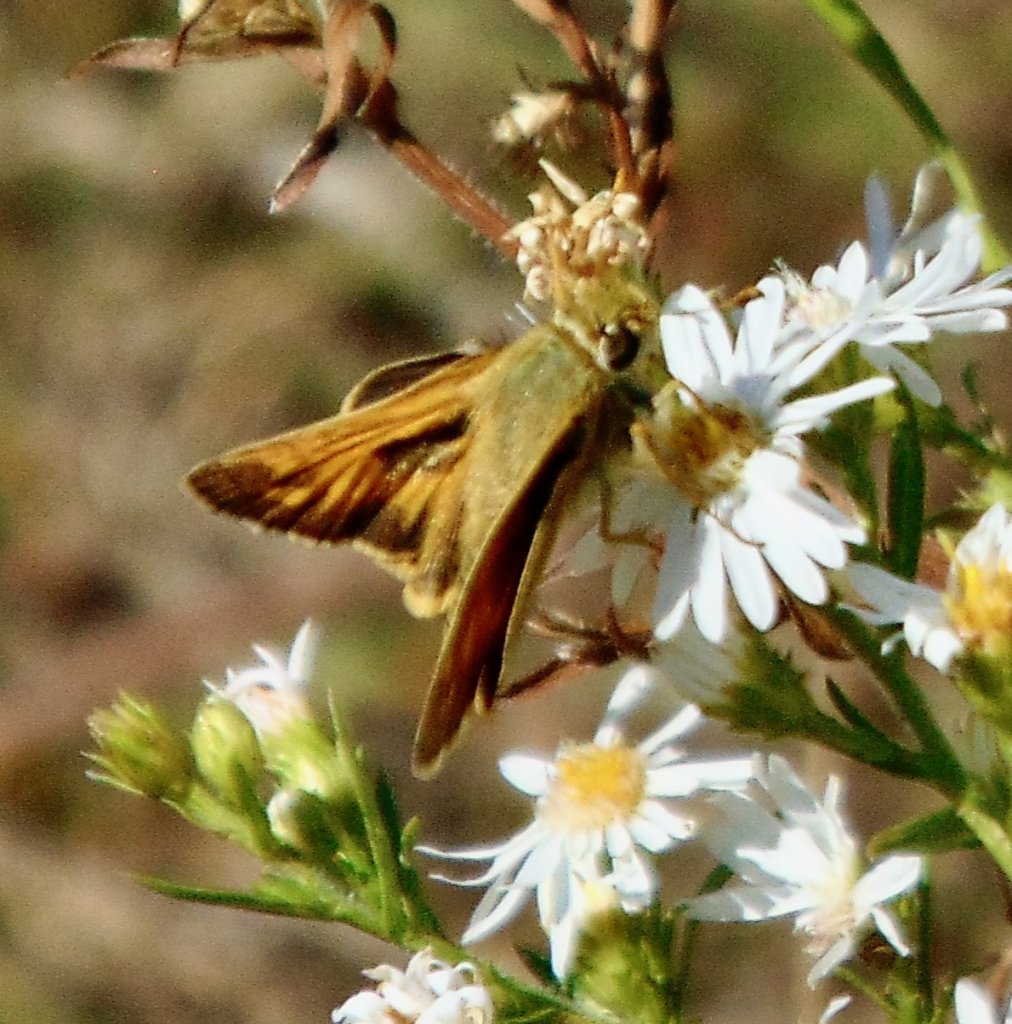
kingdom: Animalia
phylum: Arthropoda
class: Insecta
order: Lepidoptera
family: Hesperiidae
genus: Atalopedes
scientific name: Atalopedes campestris
